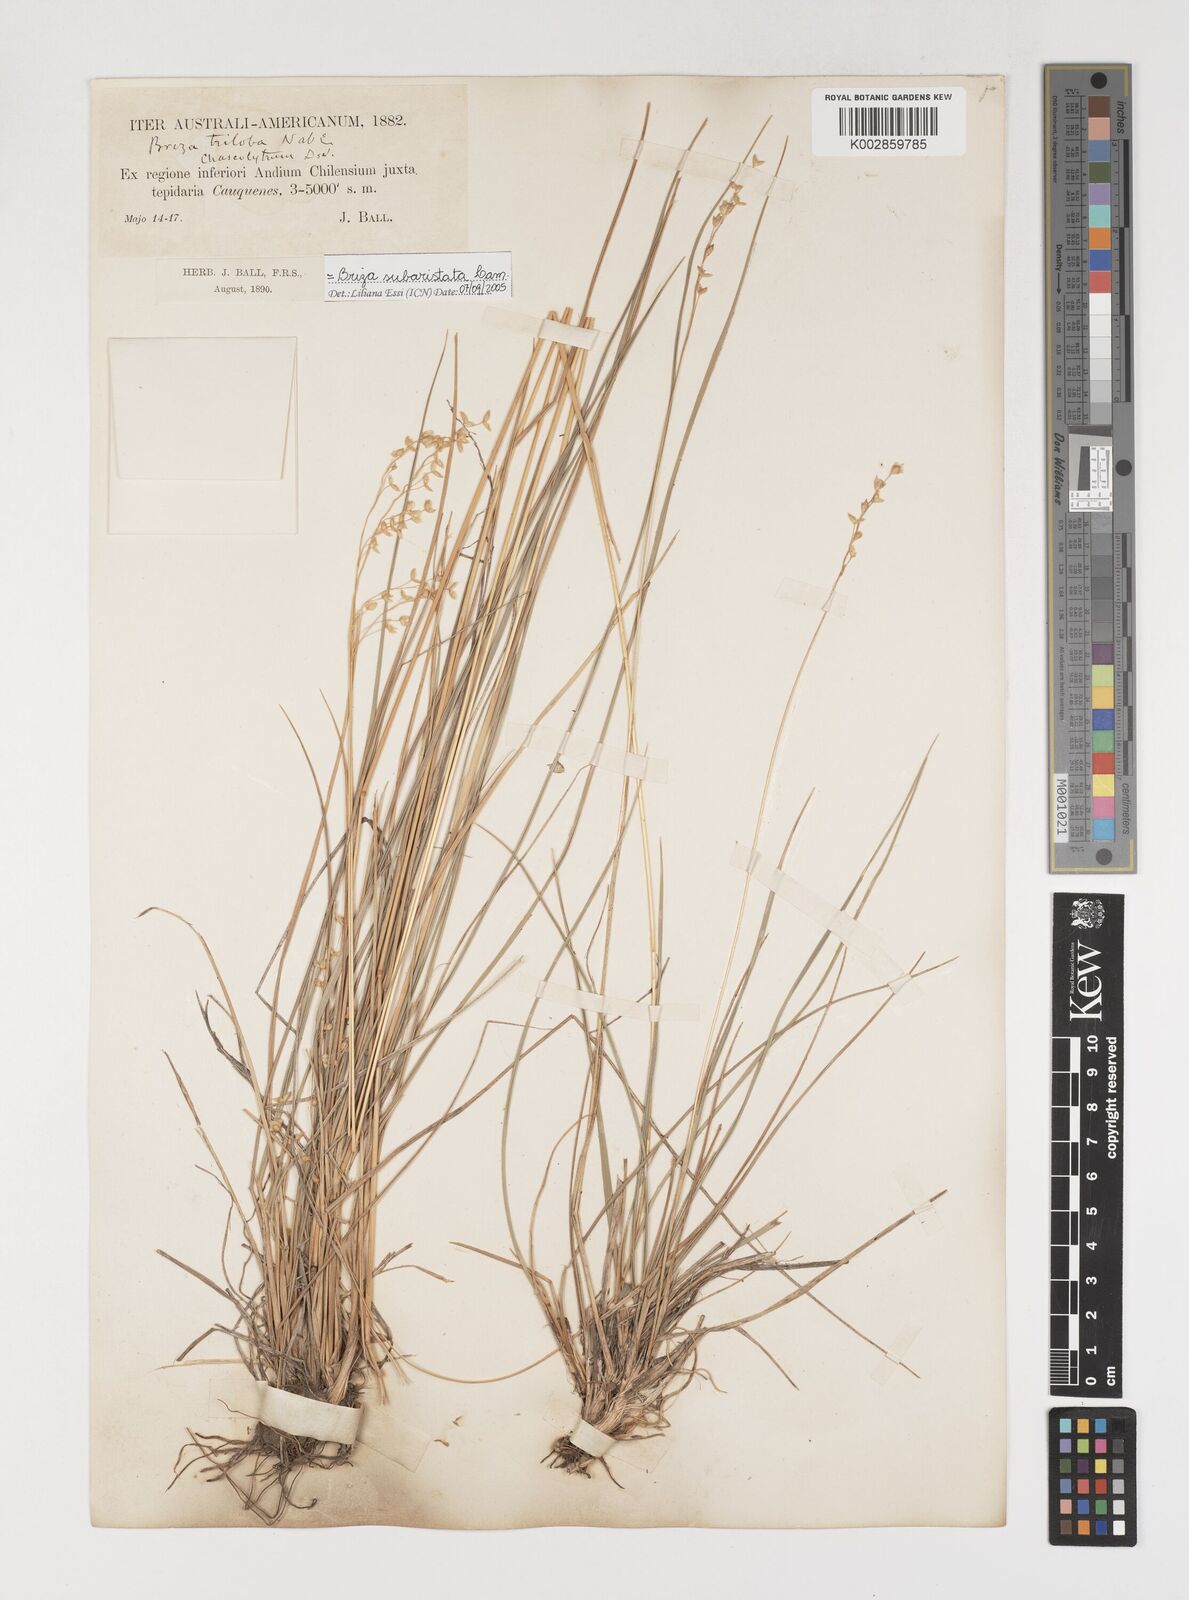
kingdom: Plantae
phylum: Tracheophyta
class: Liliopsida
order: Poales
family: Poaceae
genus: Chascolytrum
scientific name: Chascolytrum subaristatum
